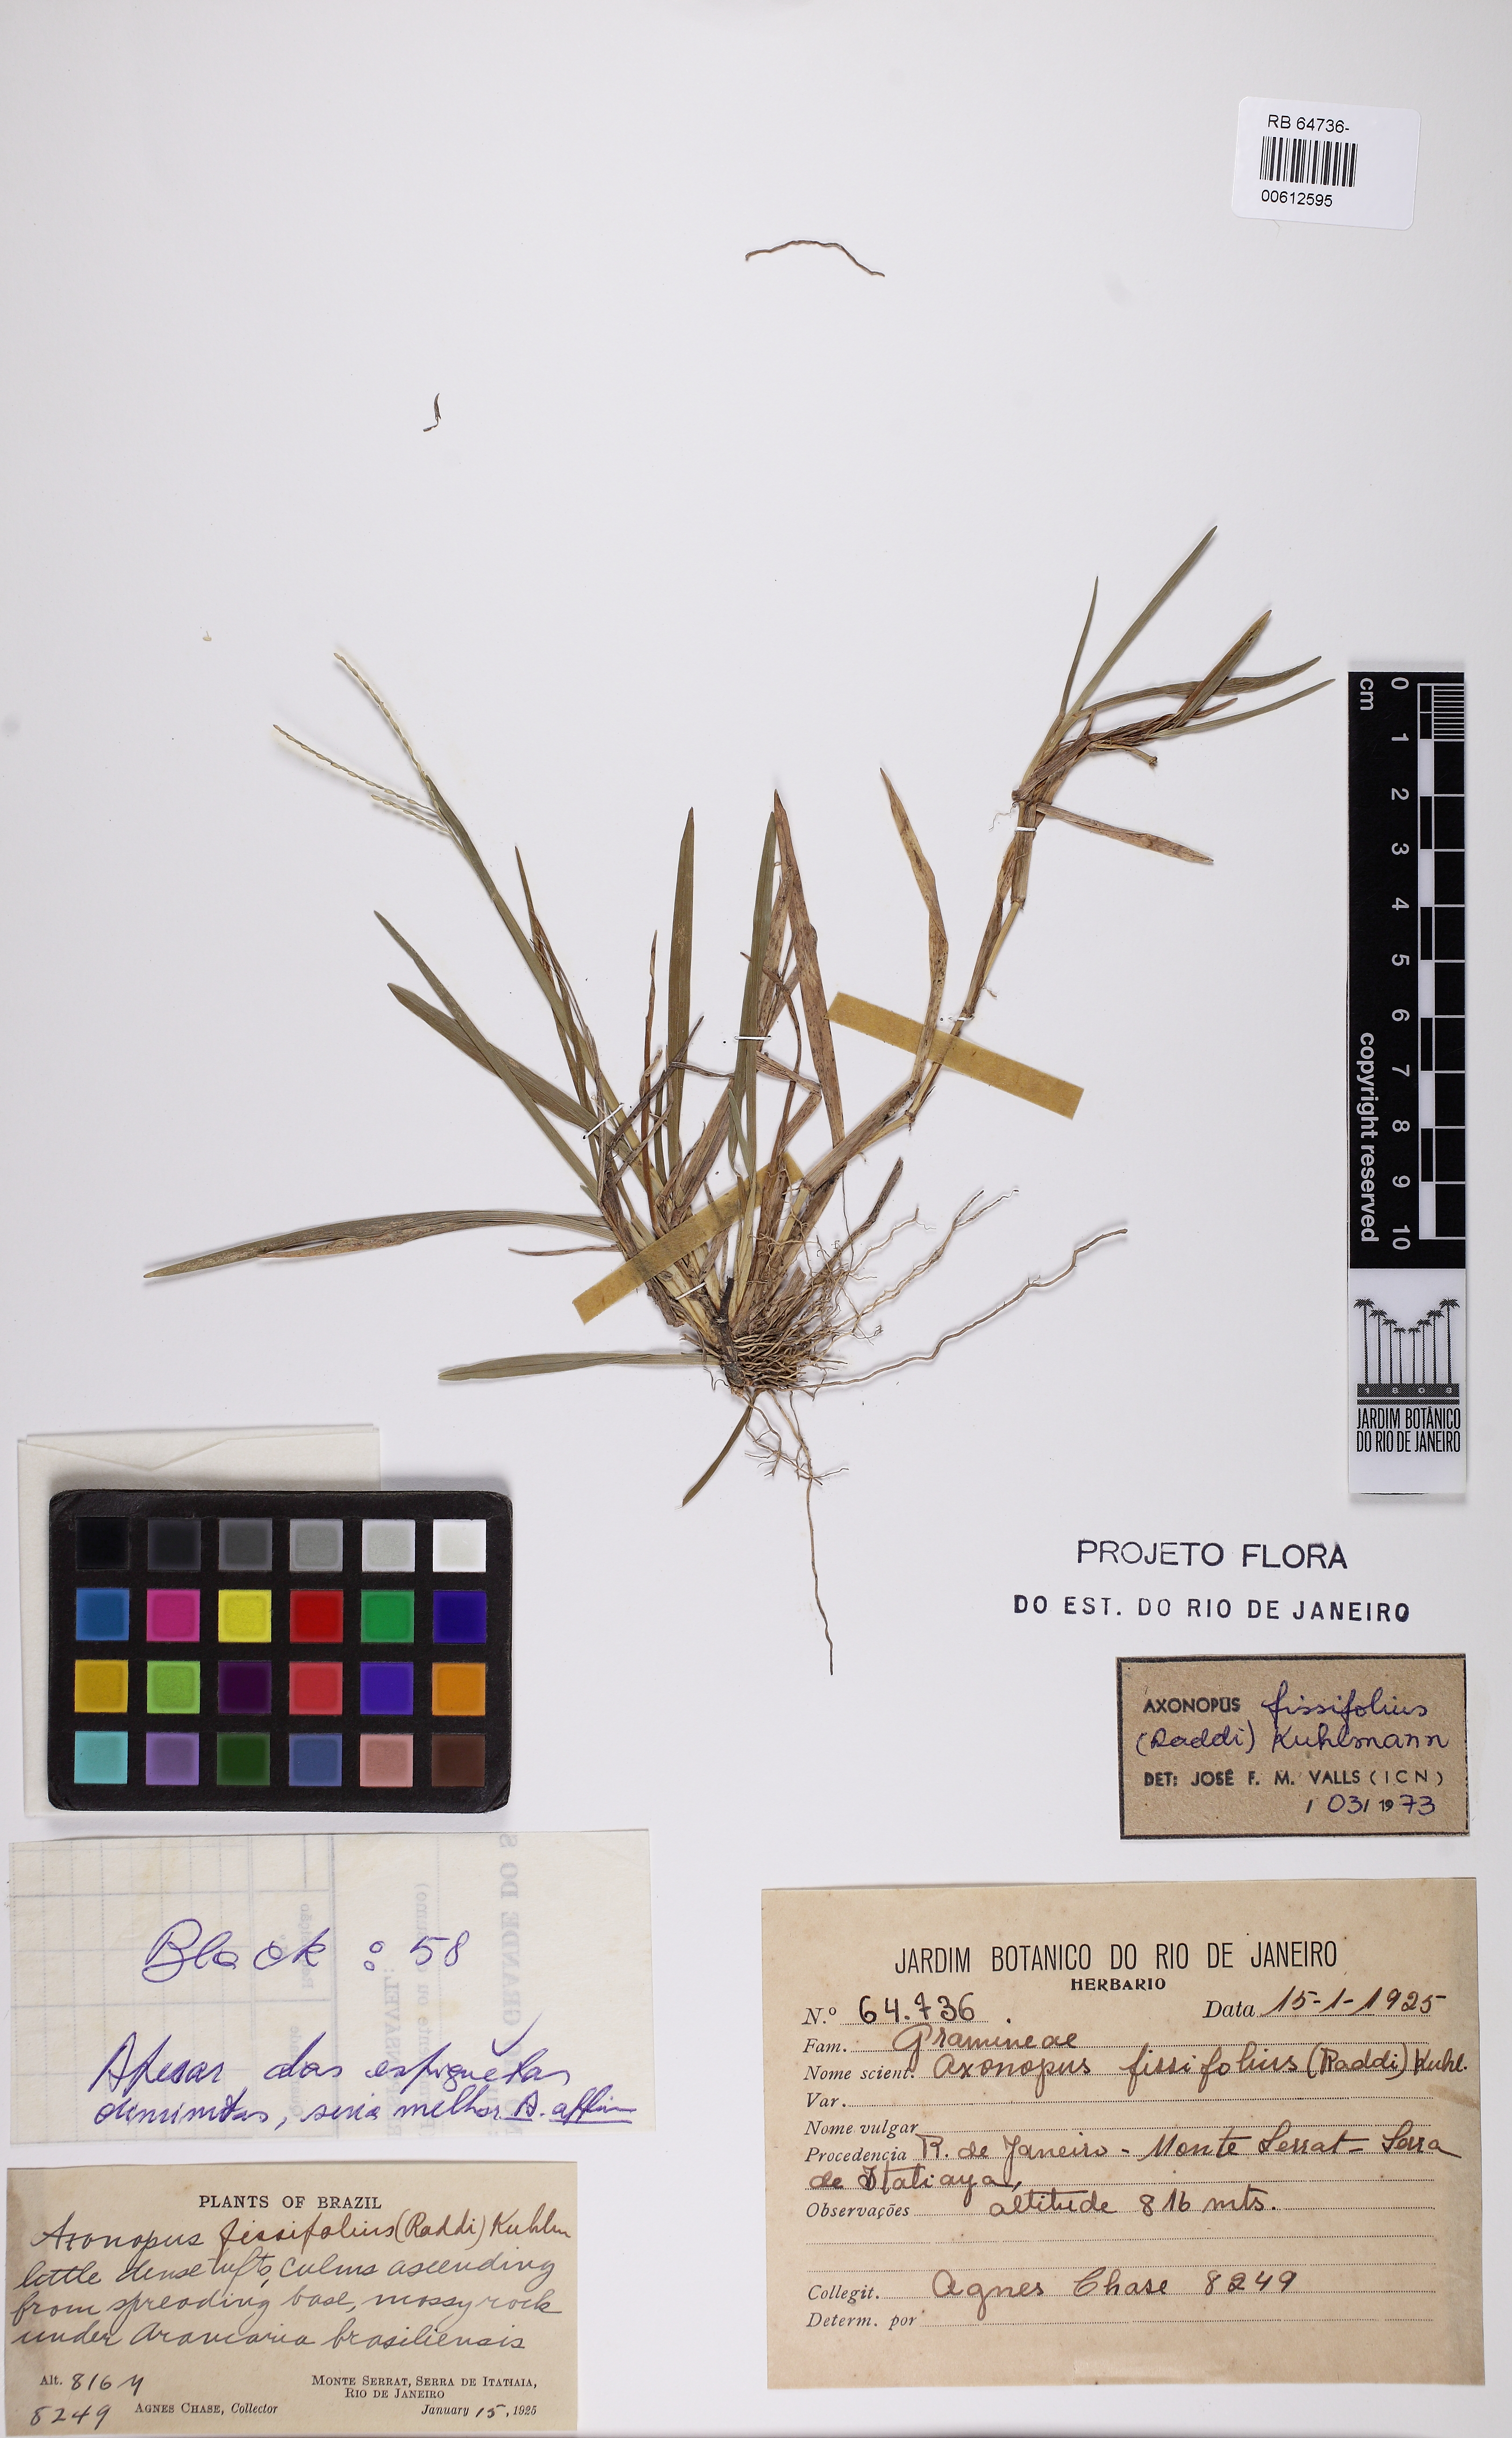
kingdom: Plantae
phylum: Tracheophyta
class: Liliopsida
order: Poales
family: Poaceae
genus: Axonopus
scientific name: Axonopus fissifolius
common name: Common carpetgrass
